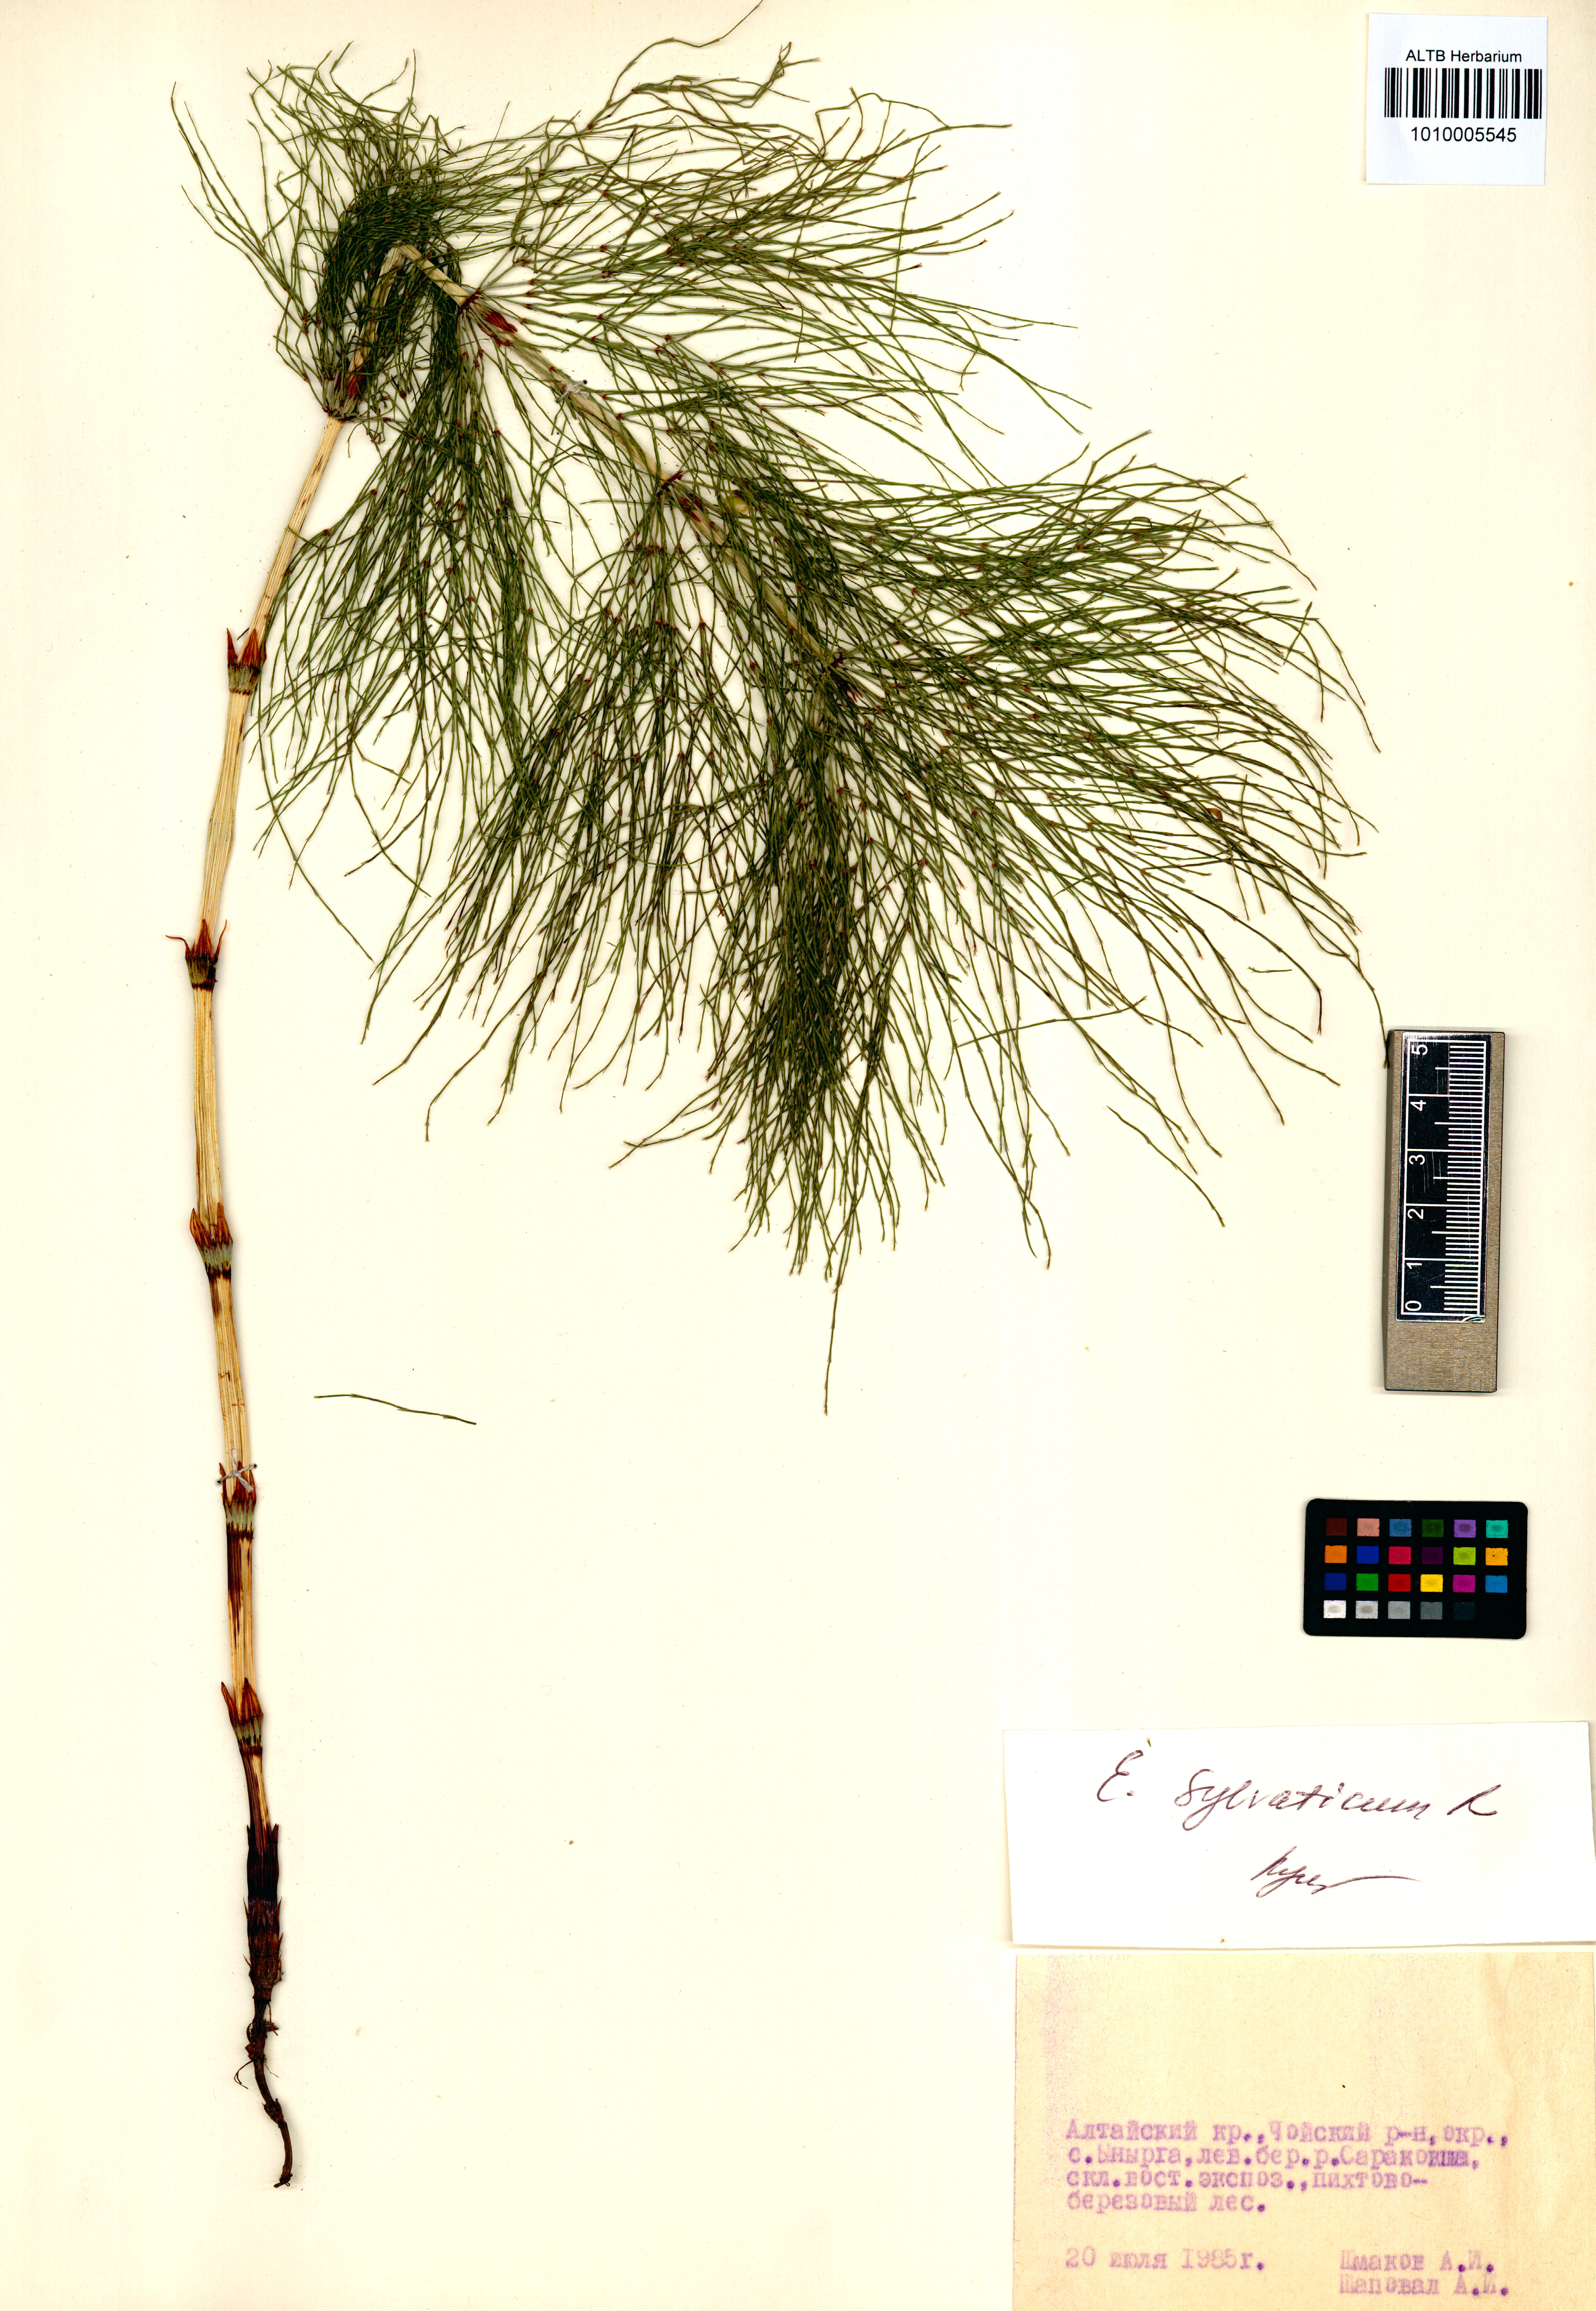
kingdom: Plantae
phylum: Tracheophyta
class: Polypodiopsida
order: Equisetales
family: Equisetaceae
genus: Equisetum
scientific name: Equisetum sylvaticum
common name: Wood horsetail
